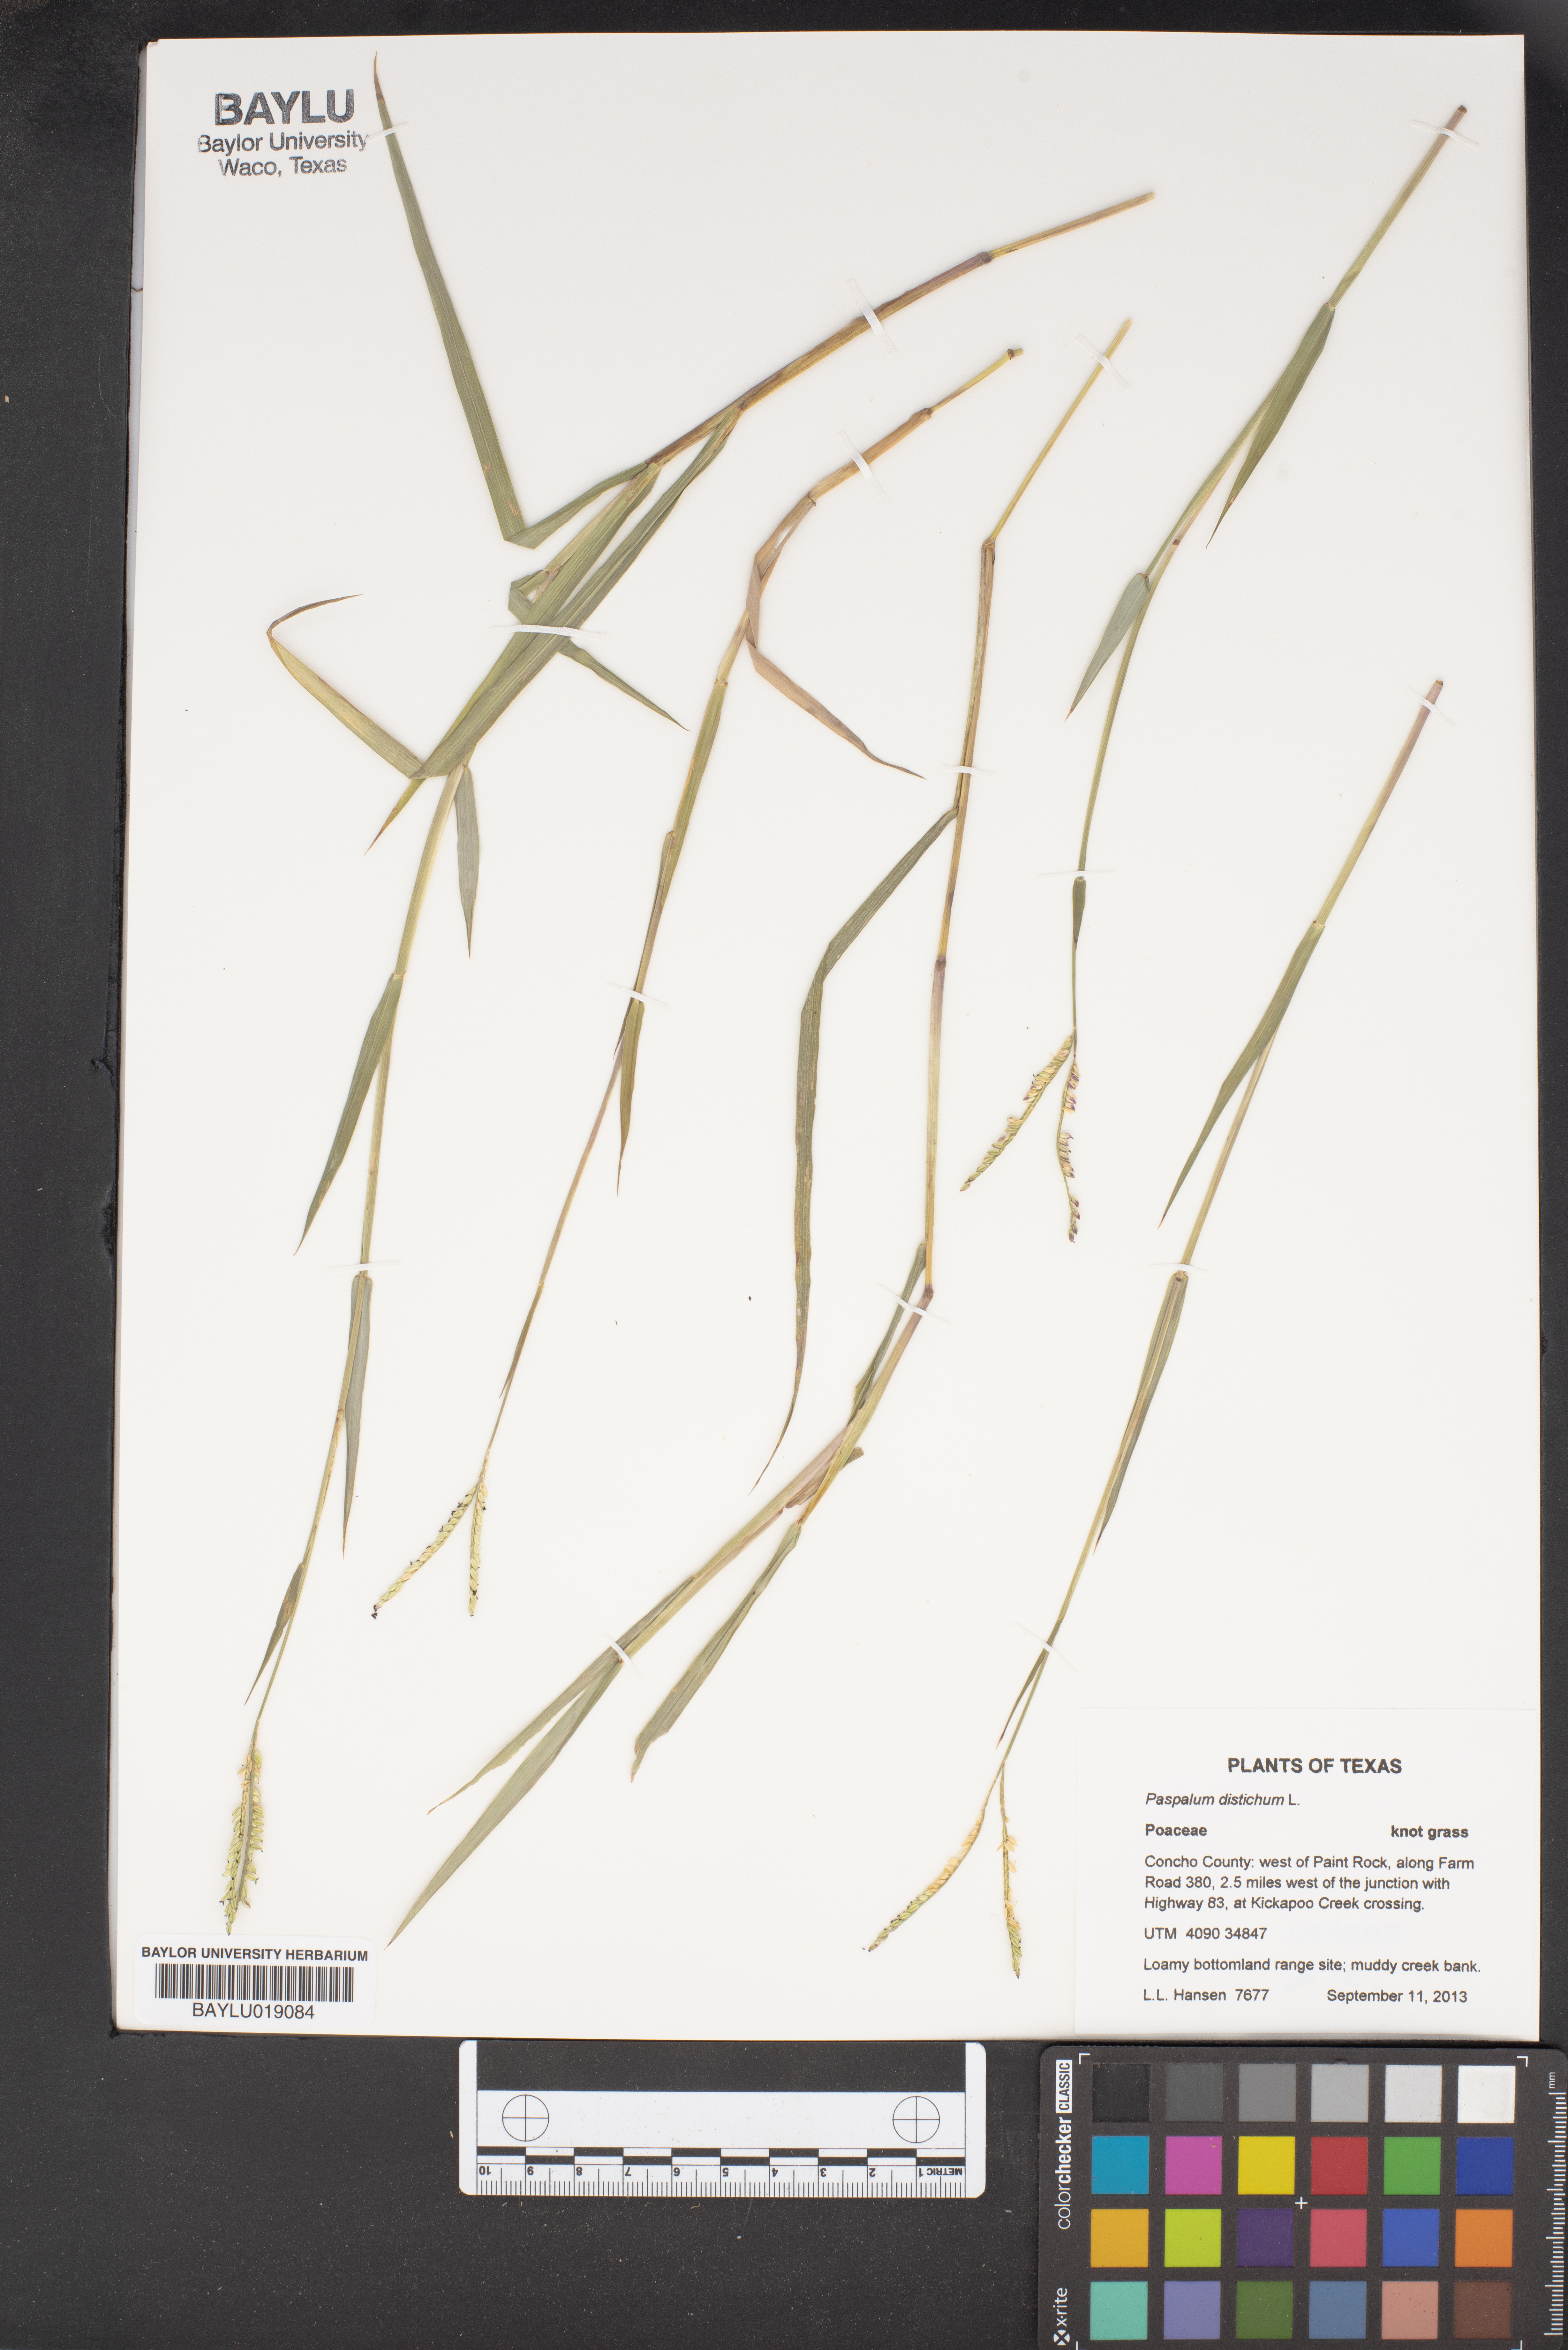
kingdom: Plantae
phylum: Tracheophyta
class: Liliopsida
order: Poales
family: Poaceae
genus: Paspalum
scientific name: Paspalum distichum
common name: Knotgrass
